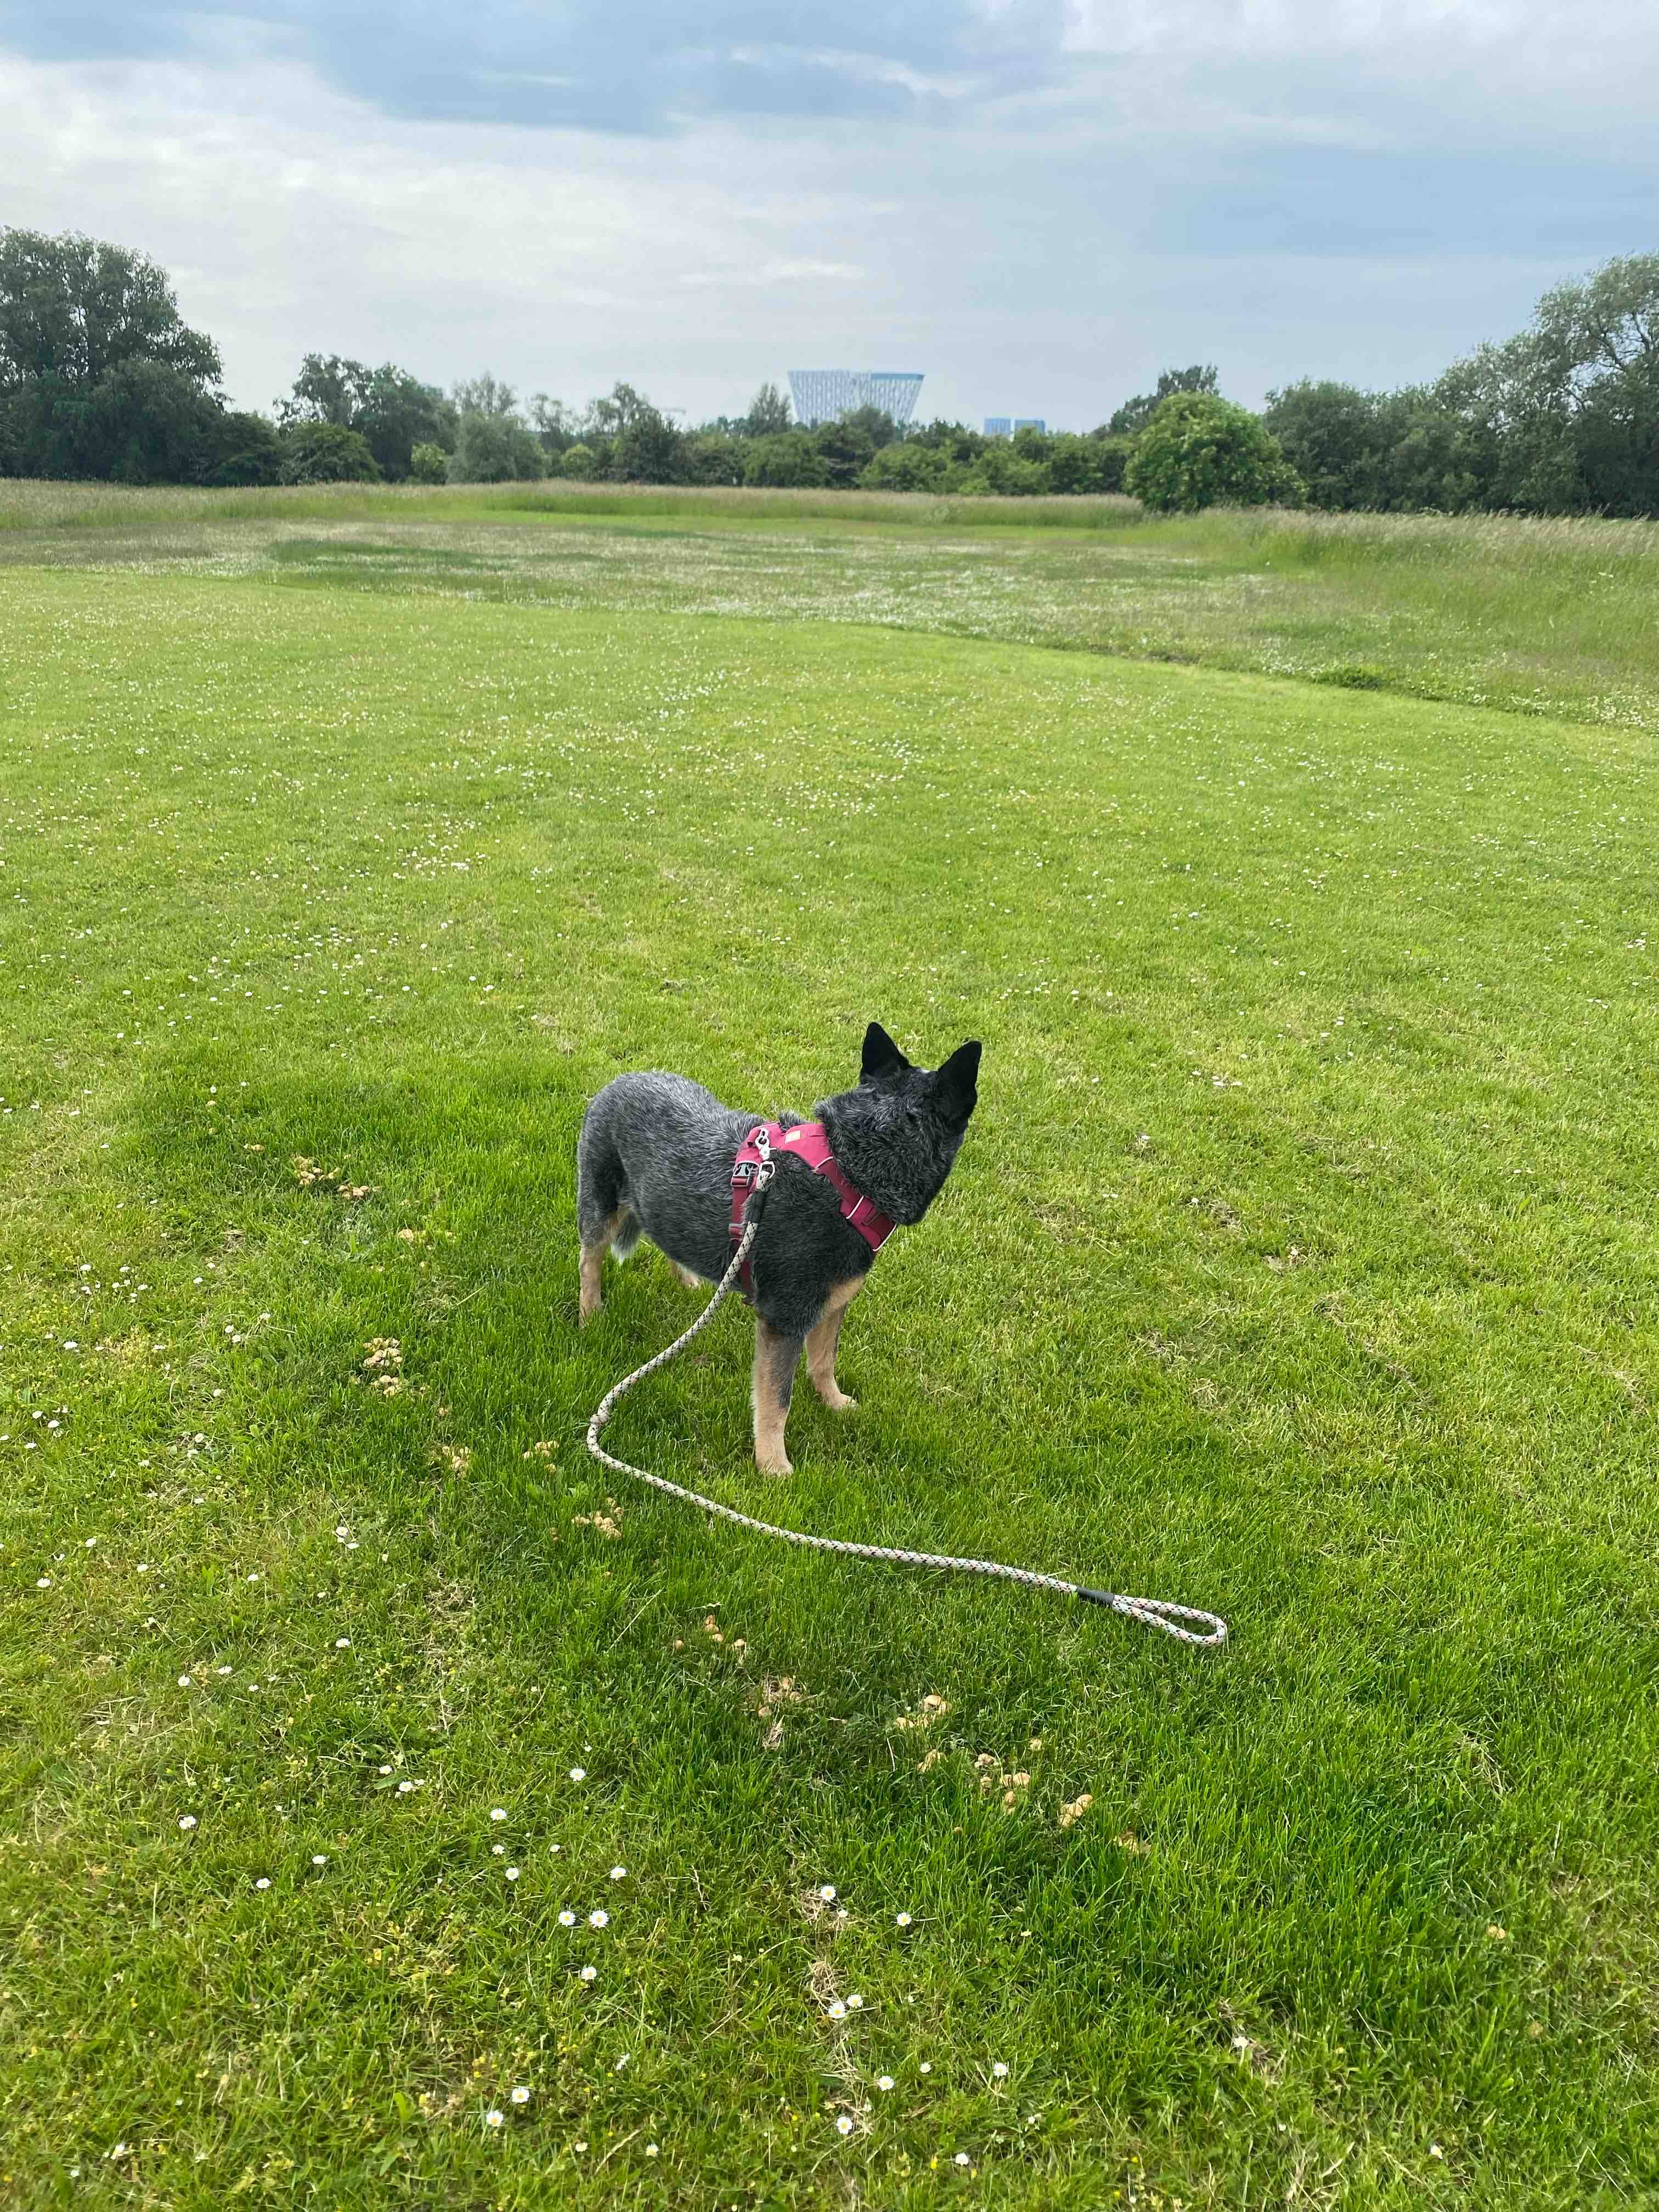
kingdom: Fungi
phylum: Basidiomycota
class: Agaricomycetes
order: Agaricales
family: Marasmiaceae
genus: Marasmius
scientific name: Marasmius oreades
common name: elledans-bruskhat
